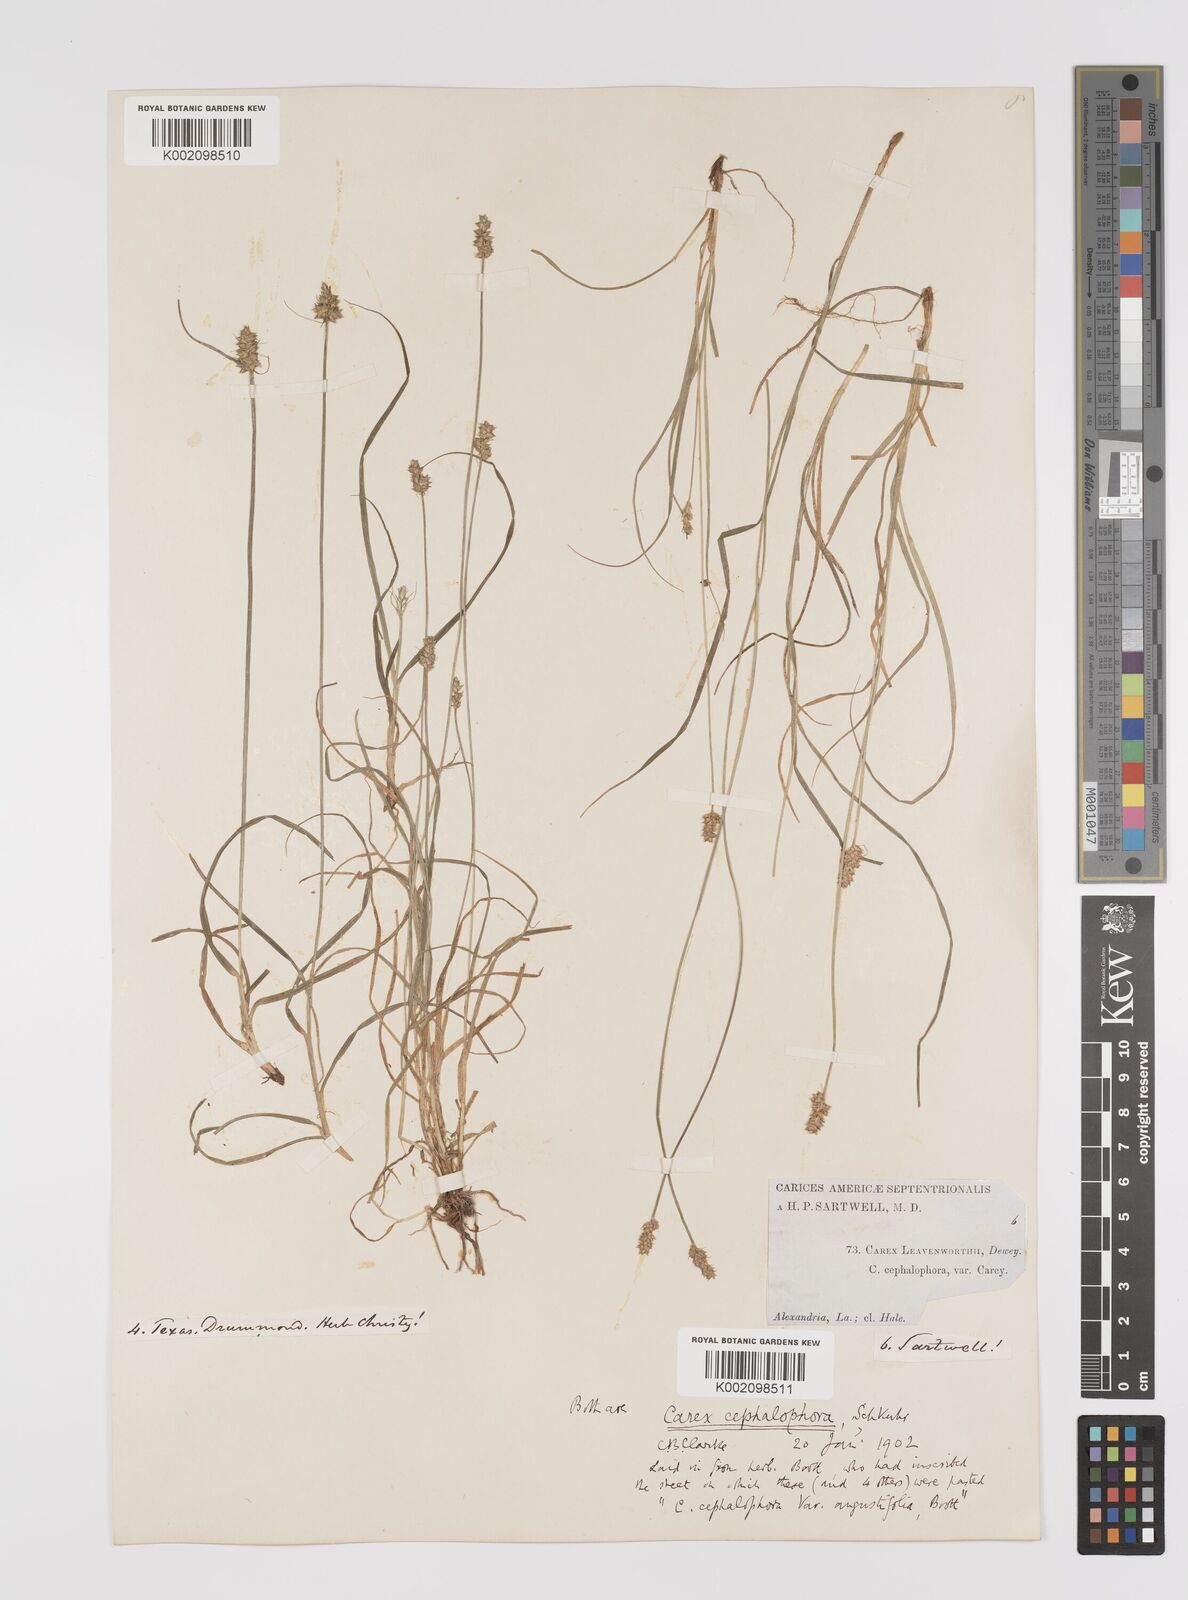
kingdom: Plantae
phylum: Tracheophyta
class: Liliopsida
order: Poales
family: Cyperaceae
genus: Carex
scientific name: Carex cephalophora
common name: Oval-headed sedge
